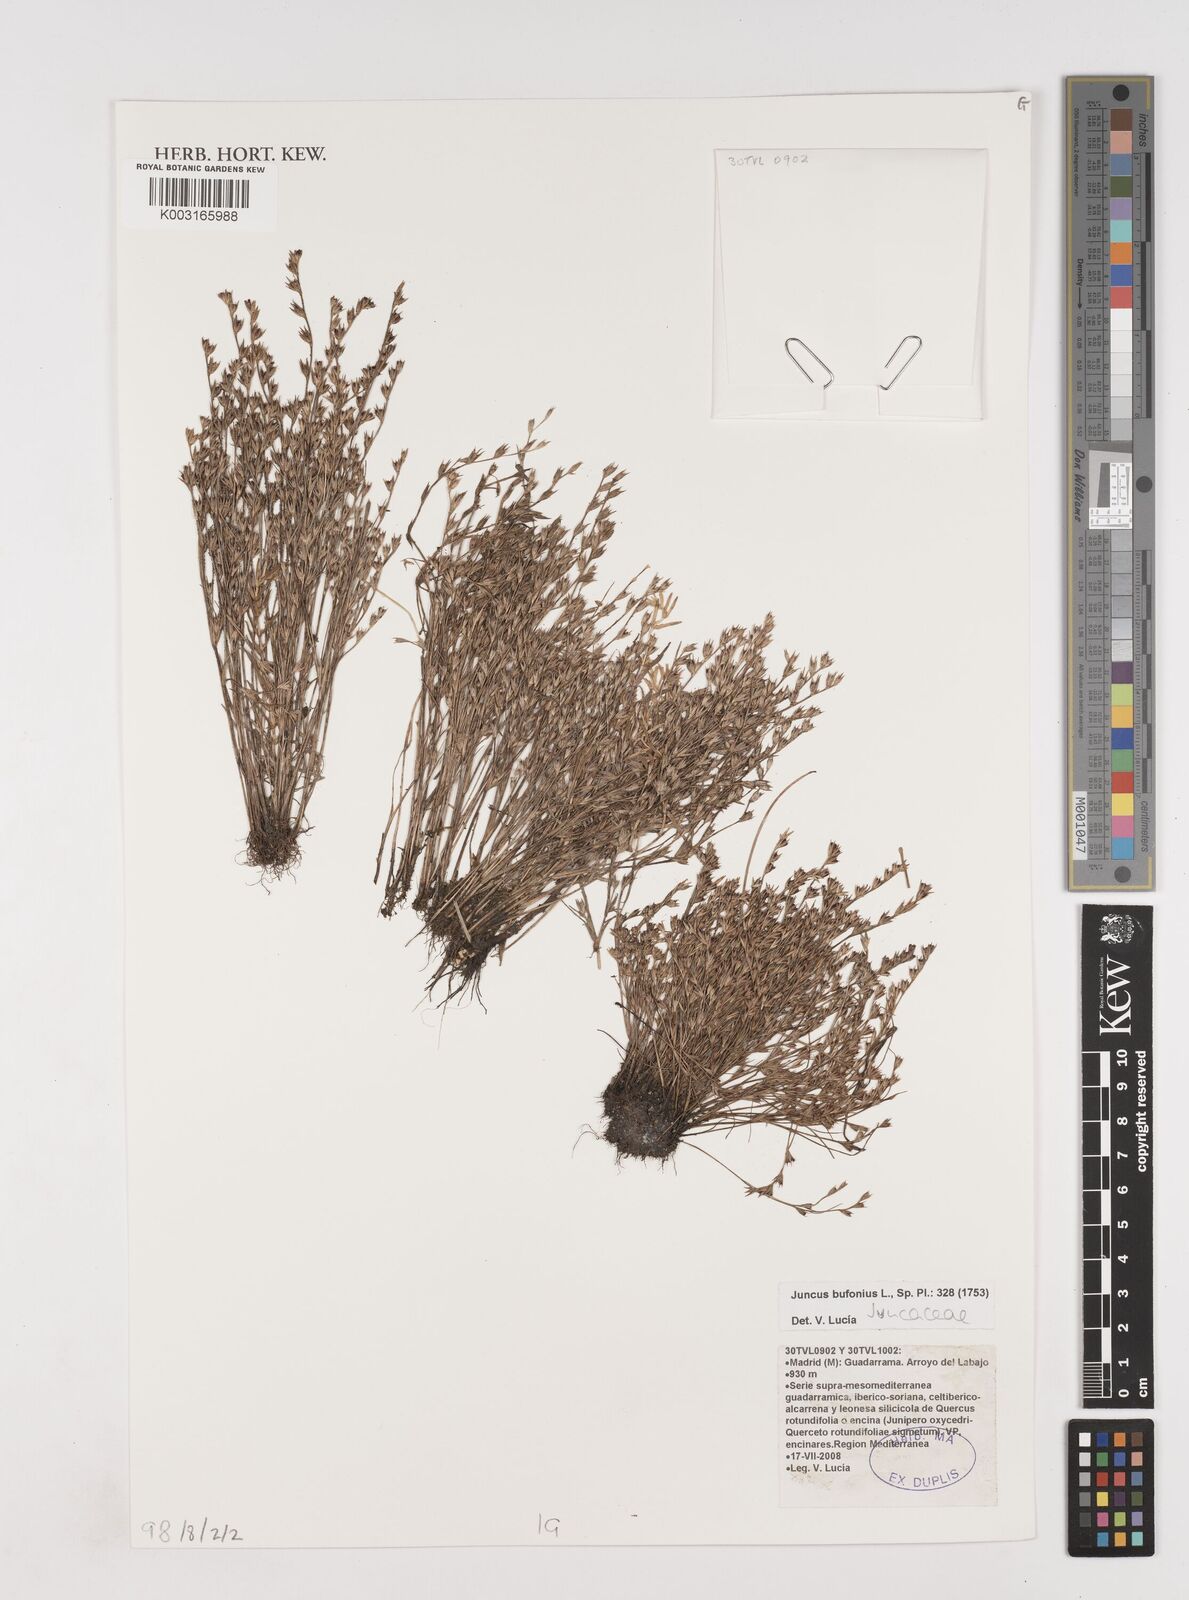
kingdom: Plantae
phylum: Tracheophyta
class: Liliopsida
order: Poales
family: Juncaceae
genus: Juncus
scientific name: Juncus bufonius
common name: Toad rush
